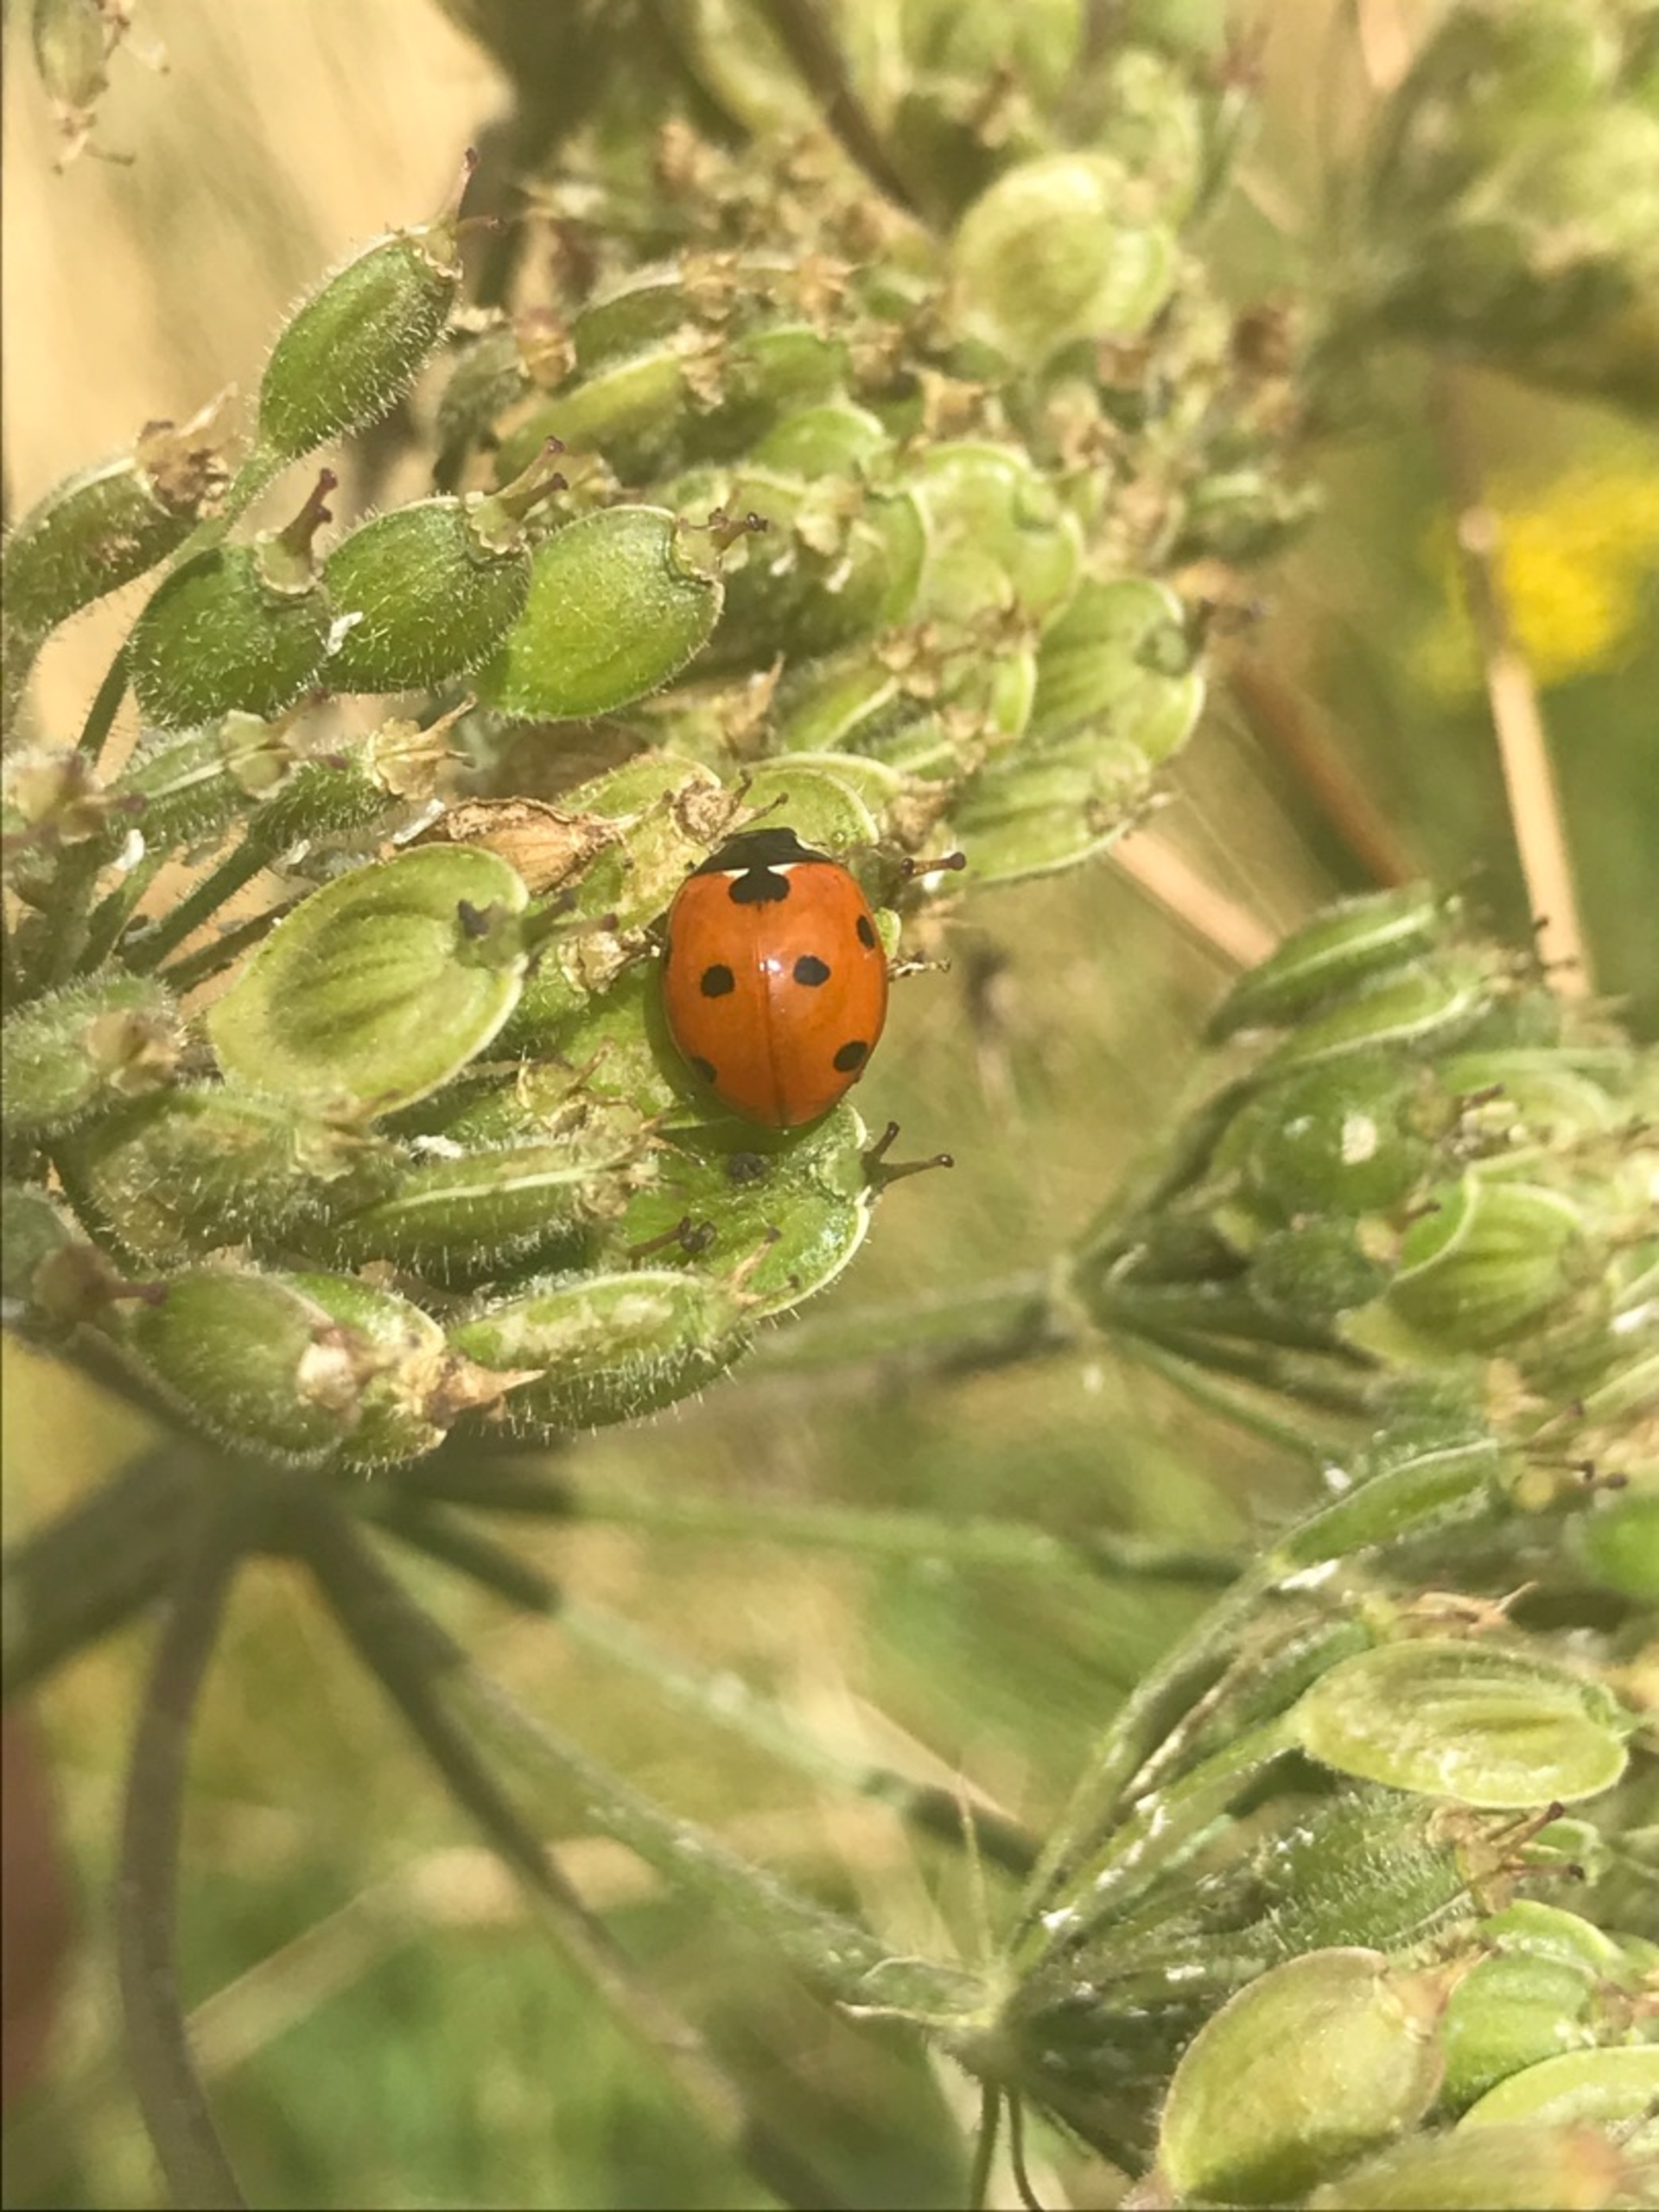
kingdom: Animalia
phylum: Arthropoda
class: Insecta
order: Coleoptera
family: Coccinellidae
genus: Coccinella
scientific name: Coccinella septempunctata
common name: Syvplettet mariehøne
